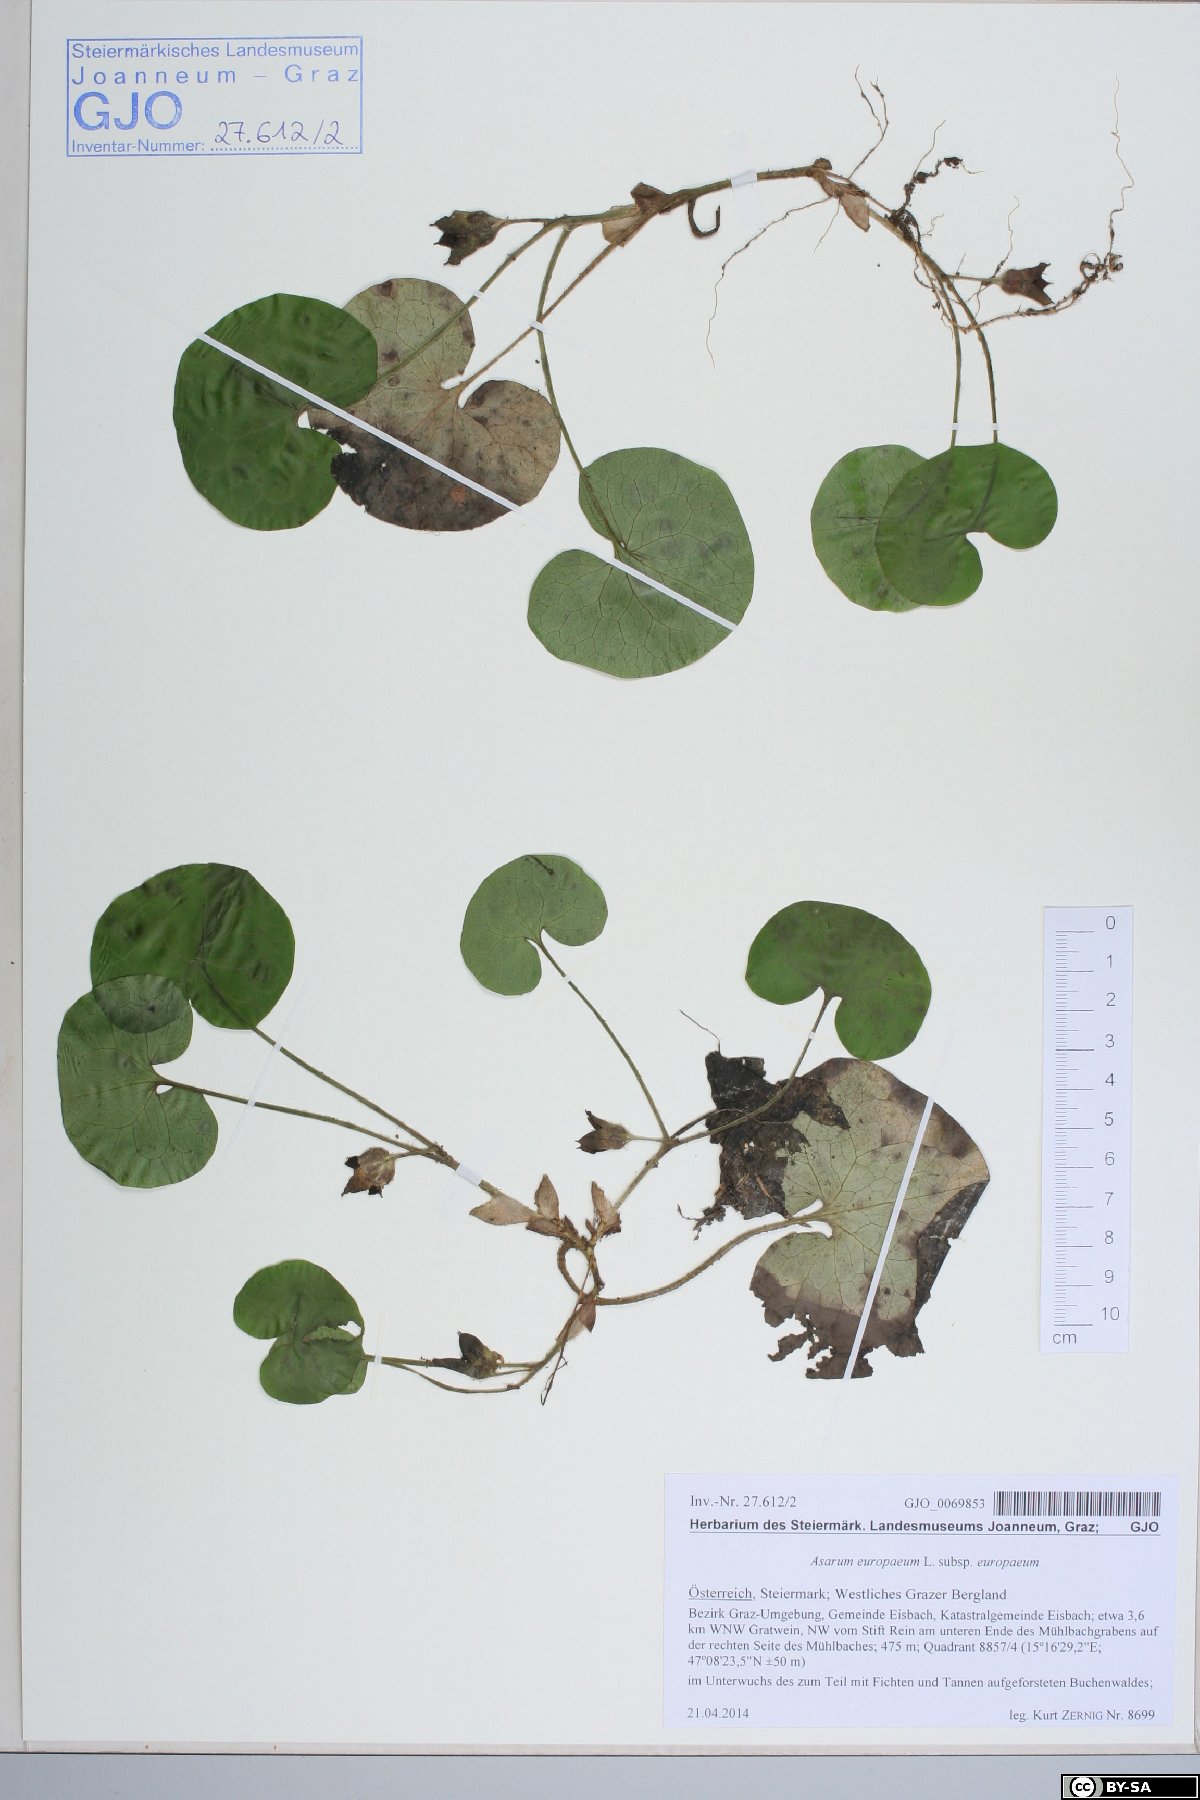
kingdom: Plantae
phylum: Tracheophyta
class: Magnoliopsida
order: Piperales
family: Aristolochiaceae
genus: Asarum
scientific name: Asarum europaeum
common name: Asarabacca
